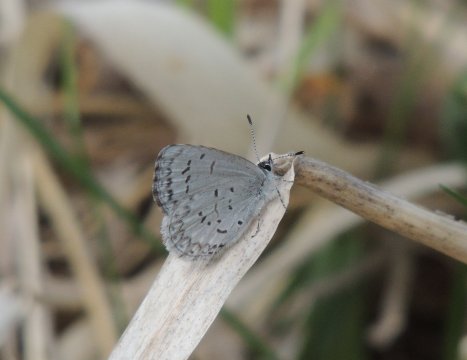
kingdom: Animalia
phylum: Arthropoda
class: Insecta
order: Lepidoptera
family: Lycaenidae
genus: Celastrina
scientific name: Celastrina ladon
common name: Echo Azure
